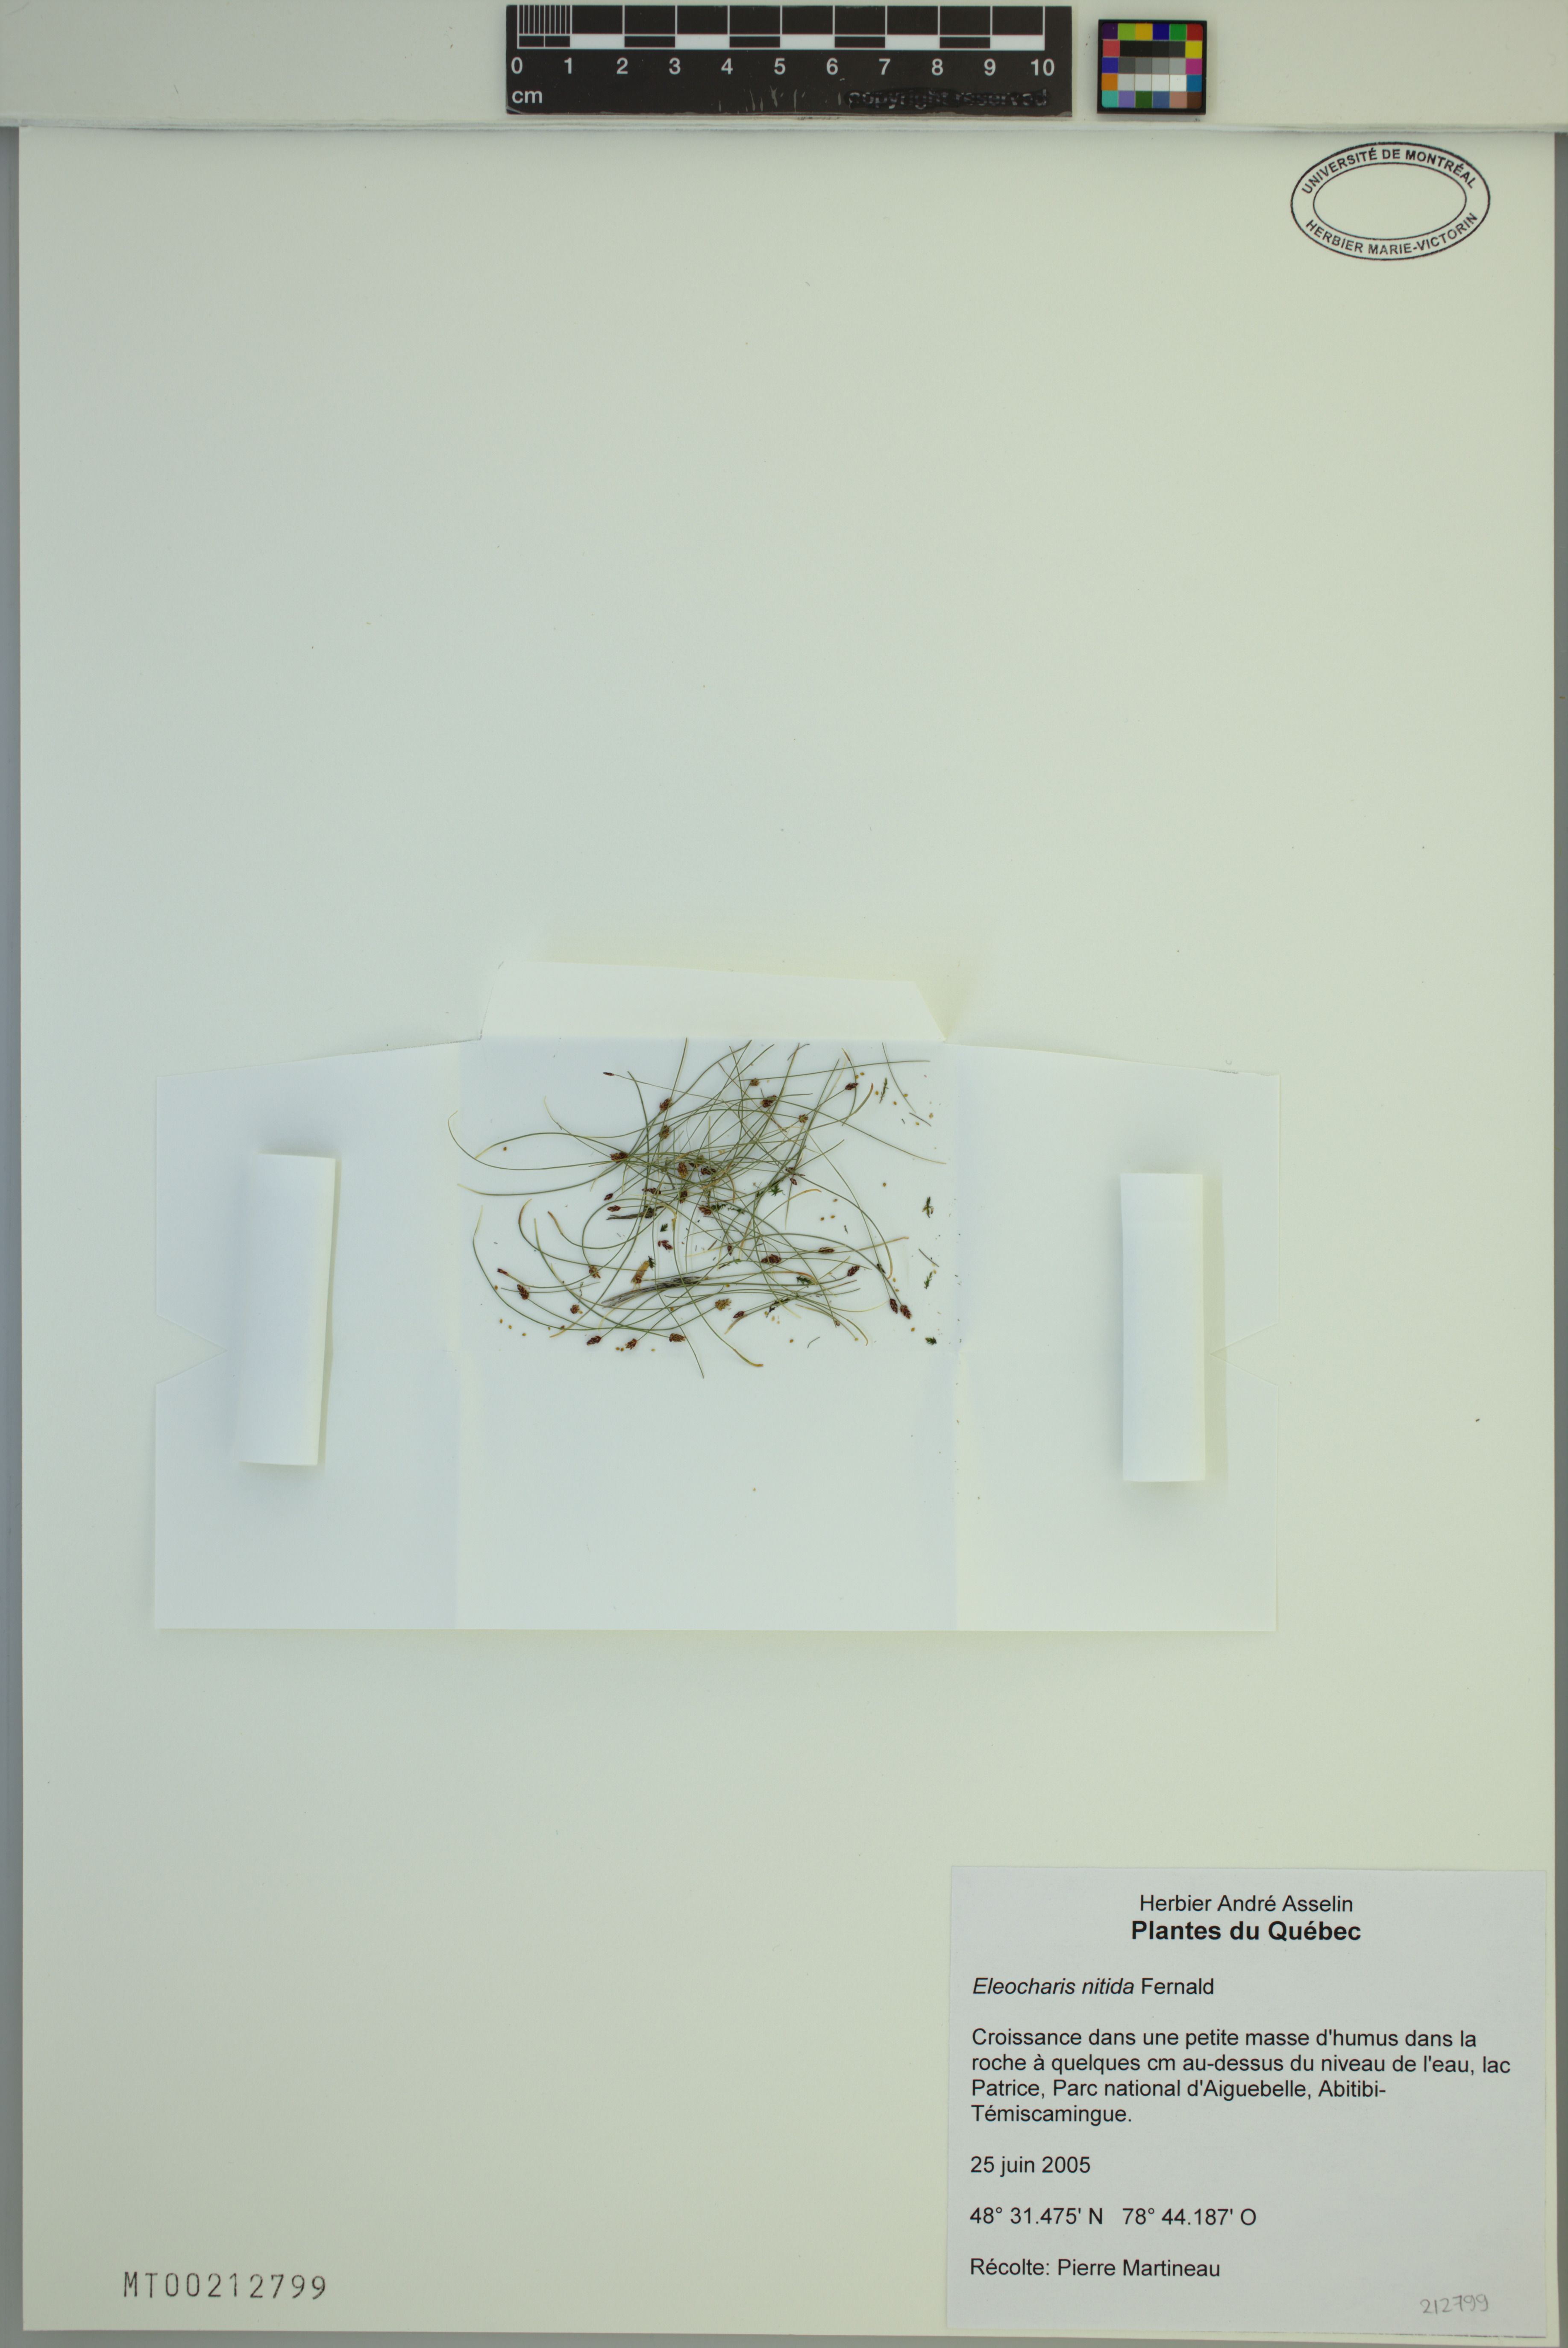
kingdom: Plantae
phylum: Tracheophyta
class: Liliopsida
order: Poales
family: Cyperaceae
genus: Eleocharis
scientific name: Eleocharis nitida
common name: Neat spikerush
